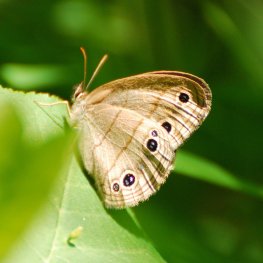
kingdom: Animalia
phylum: Arthropoda
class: Insecta
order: Lepidoptera
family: Nymphalidae
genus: Euptychia
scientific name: Euptychia cymela
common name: Little Wood Satyr
